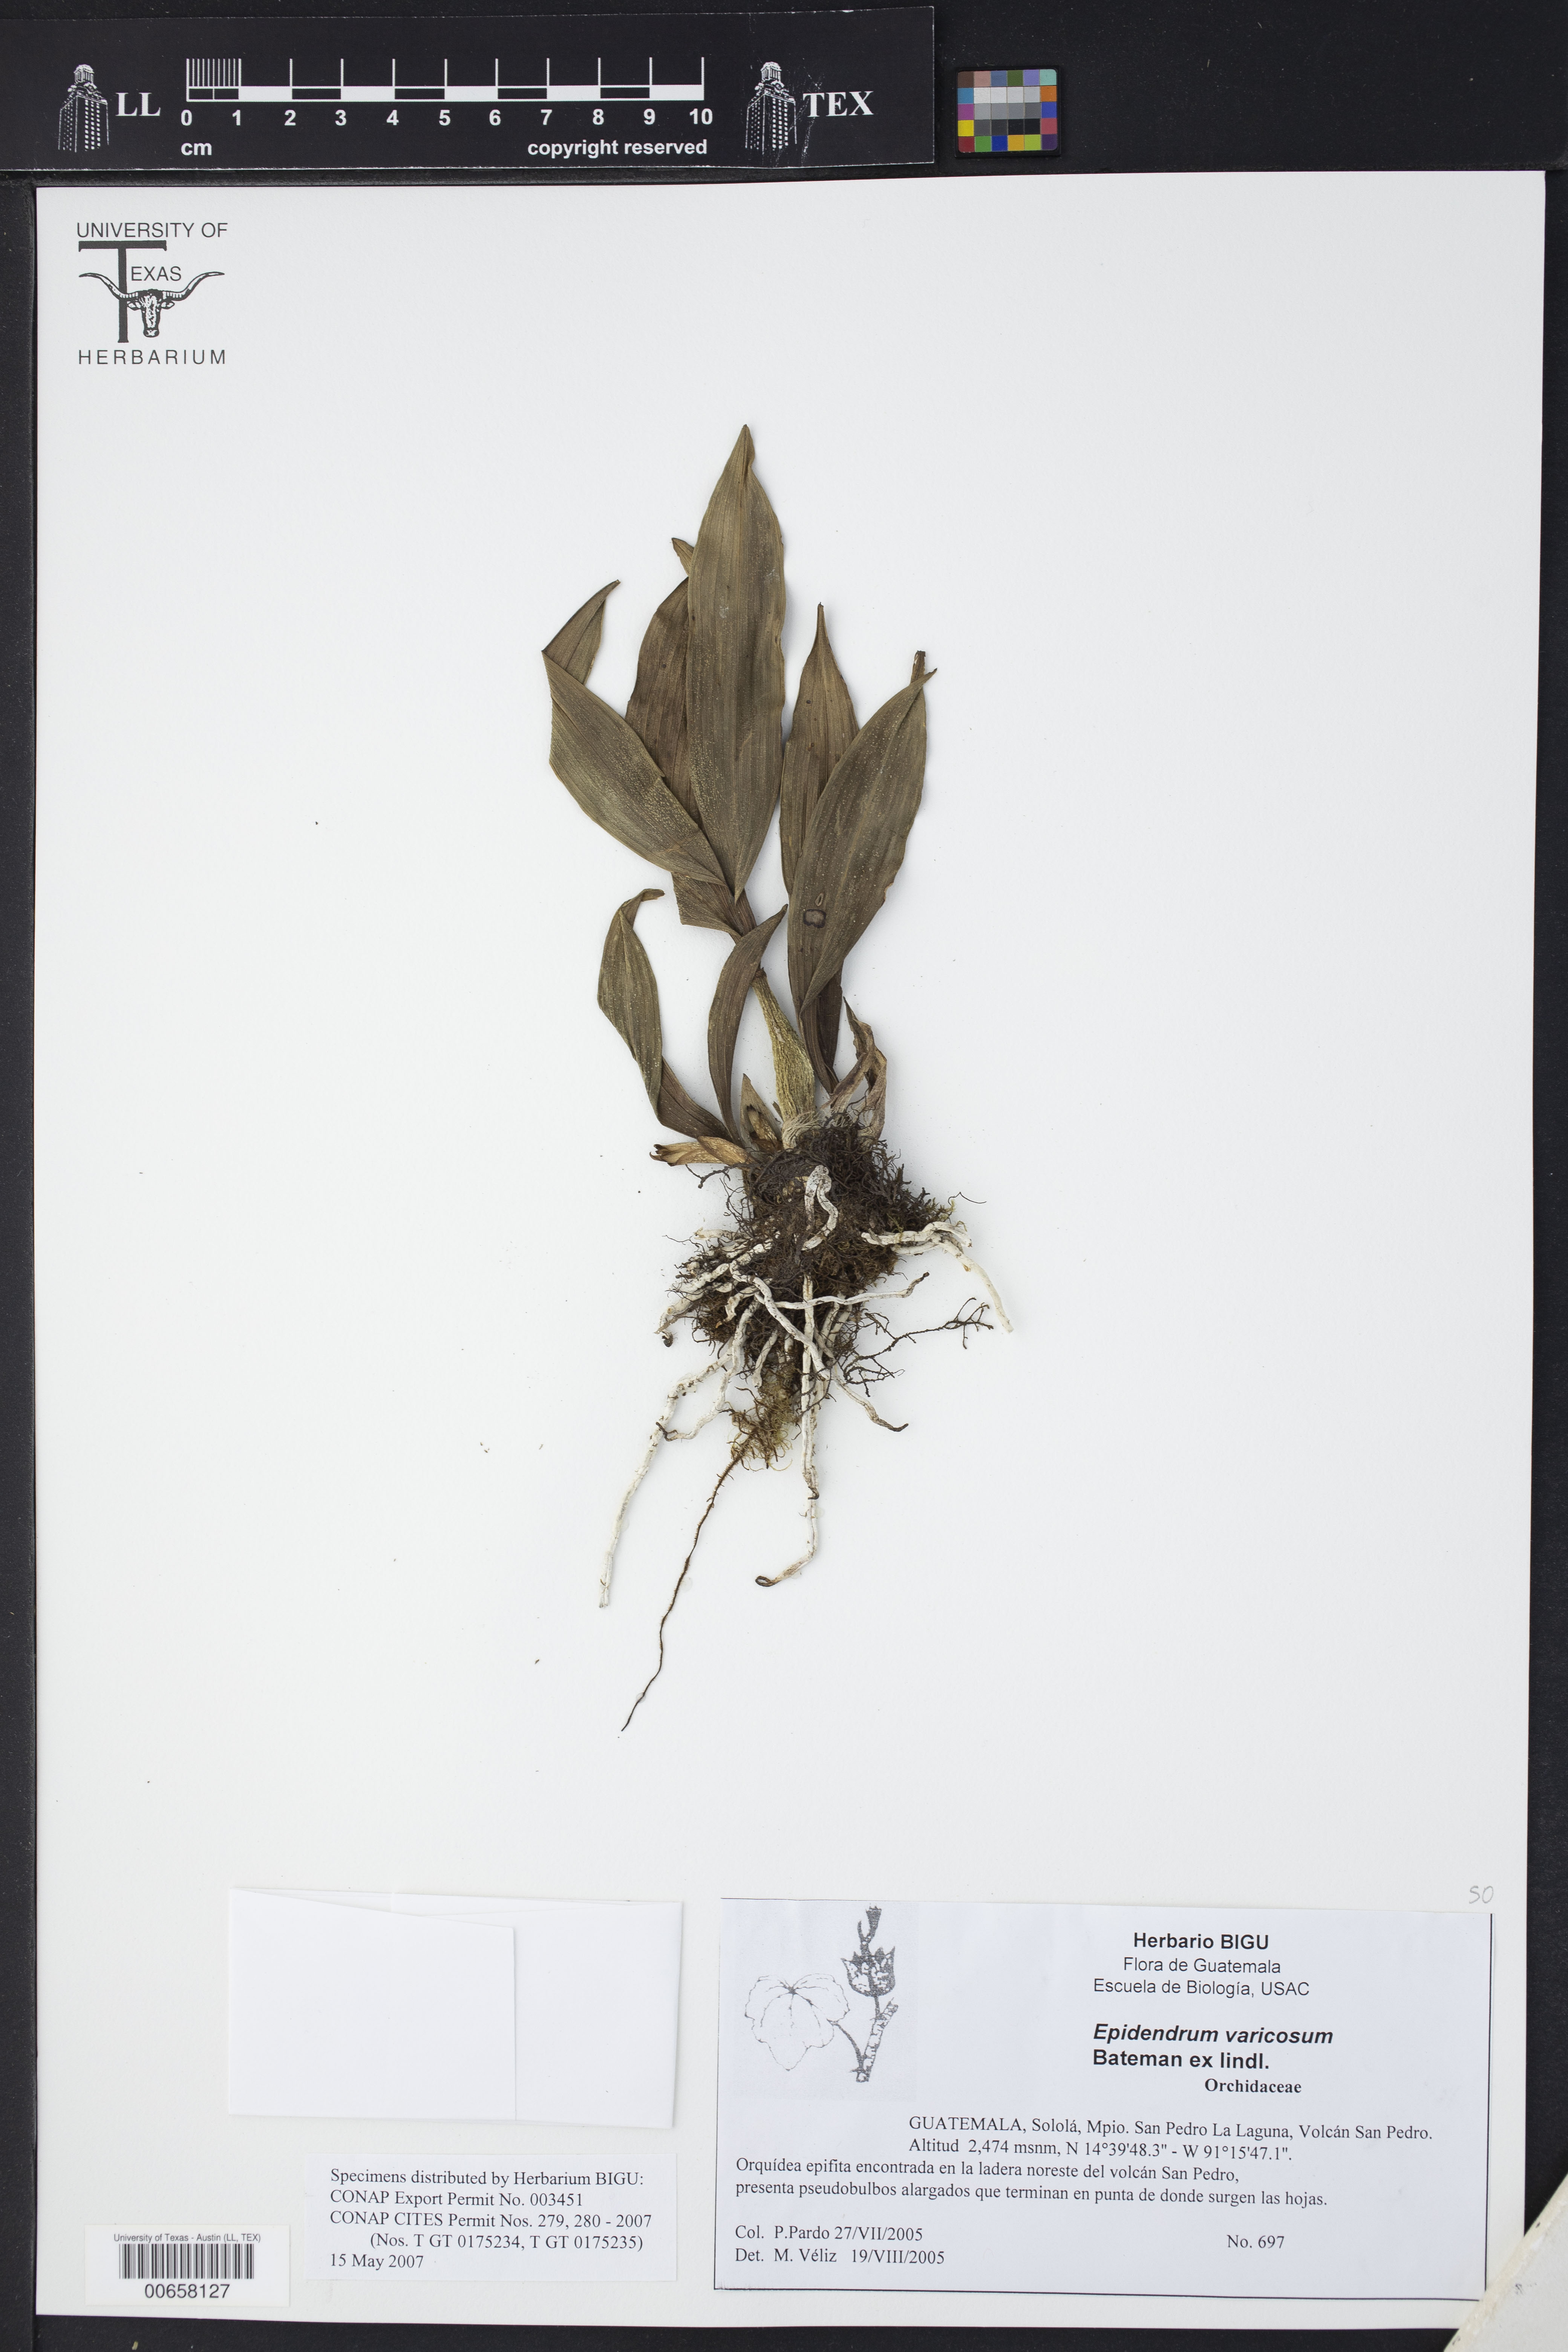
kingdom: Plantae
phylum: Tracheophyta
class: Liliopsida
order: Asparagales
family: Orchidaceae
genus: Prosthechea
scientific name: Prosthechea varicosa
